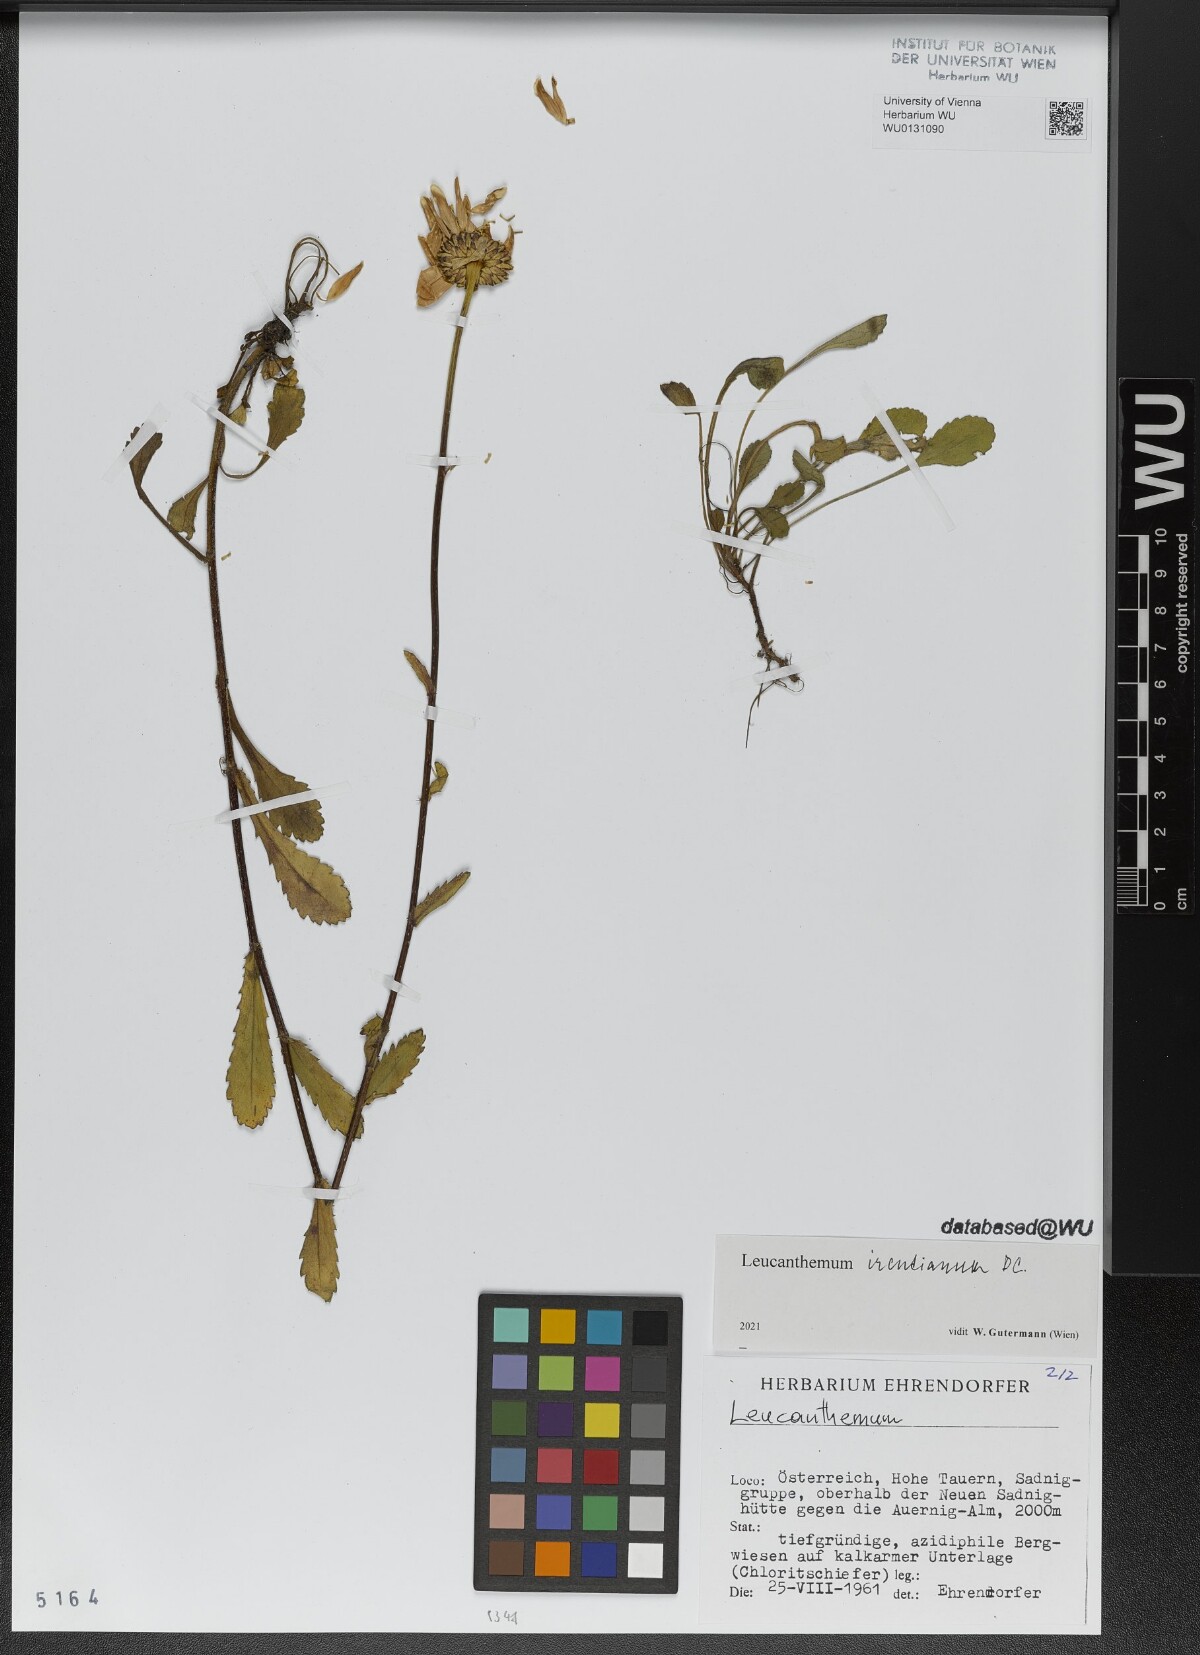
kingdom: Plantae
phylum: Tracheophyta
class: Magnoliopsida
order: Asterales
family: Asteraceae
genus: Leucanthemum
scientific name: Leucanthemum ircutianum
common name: Daisy
